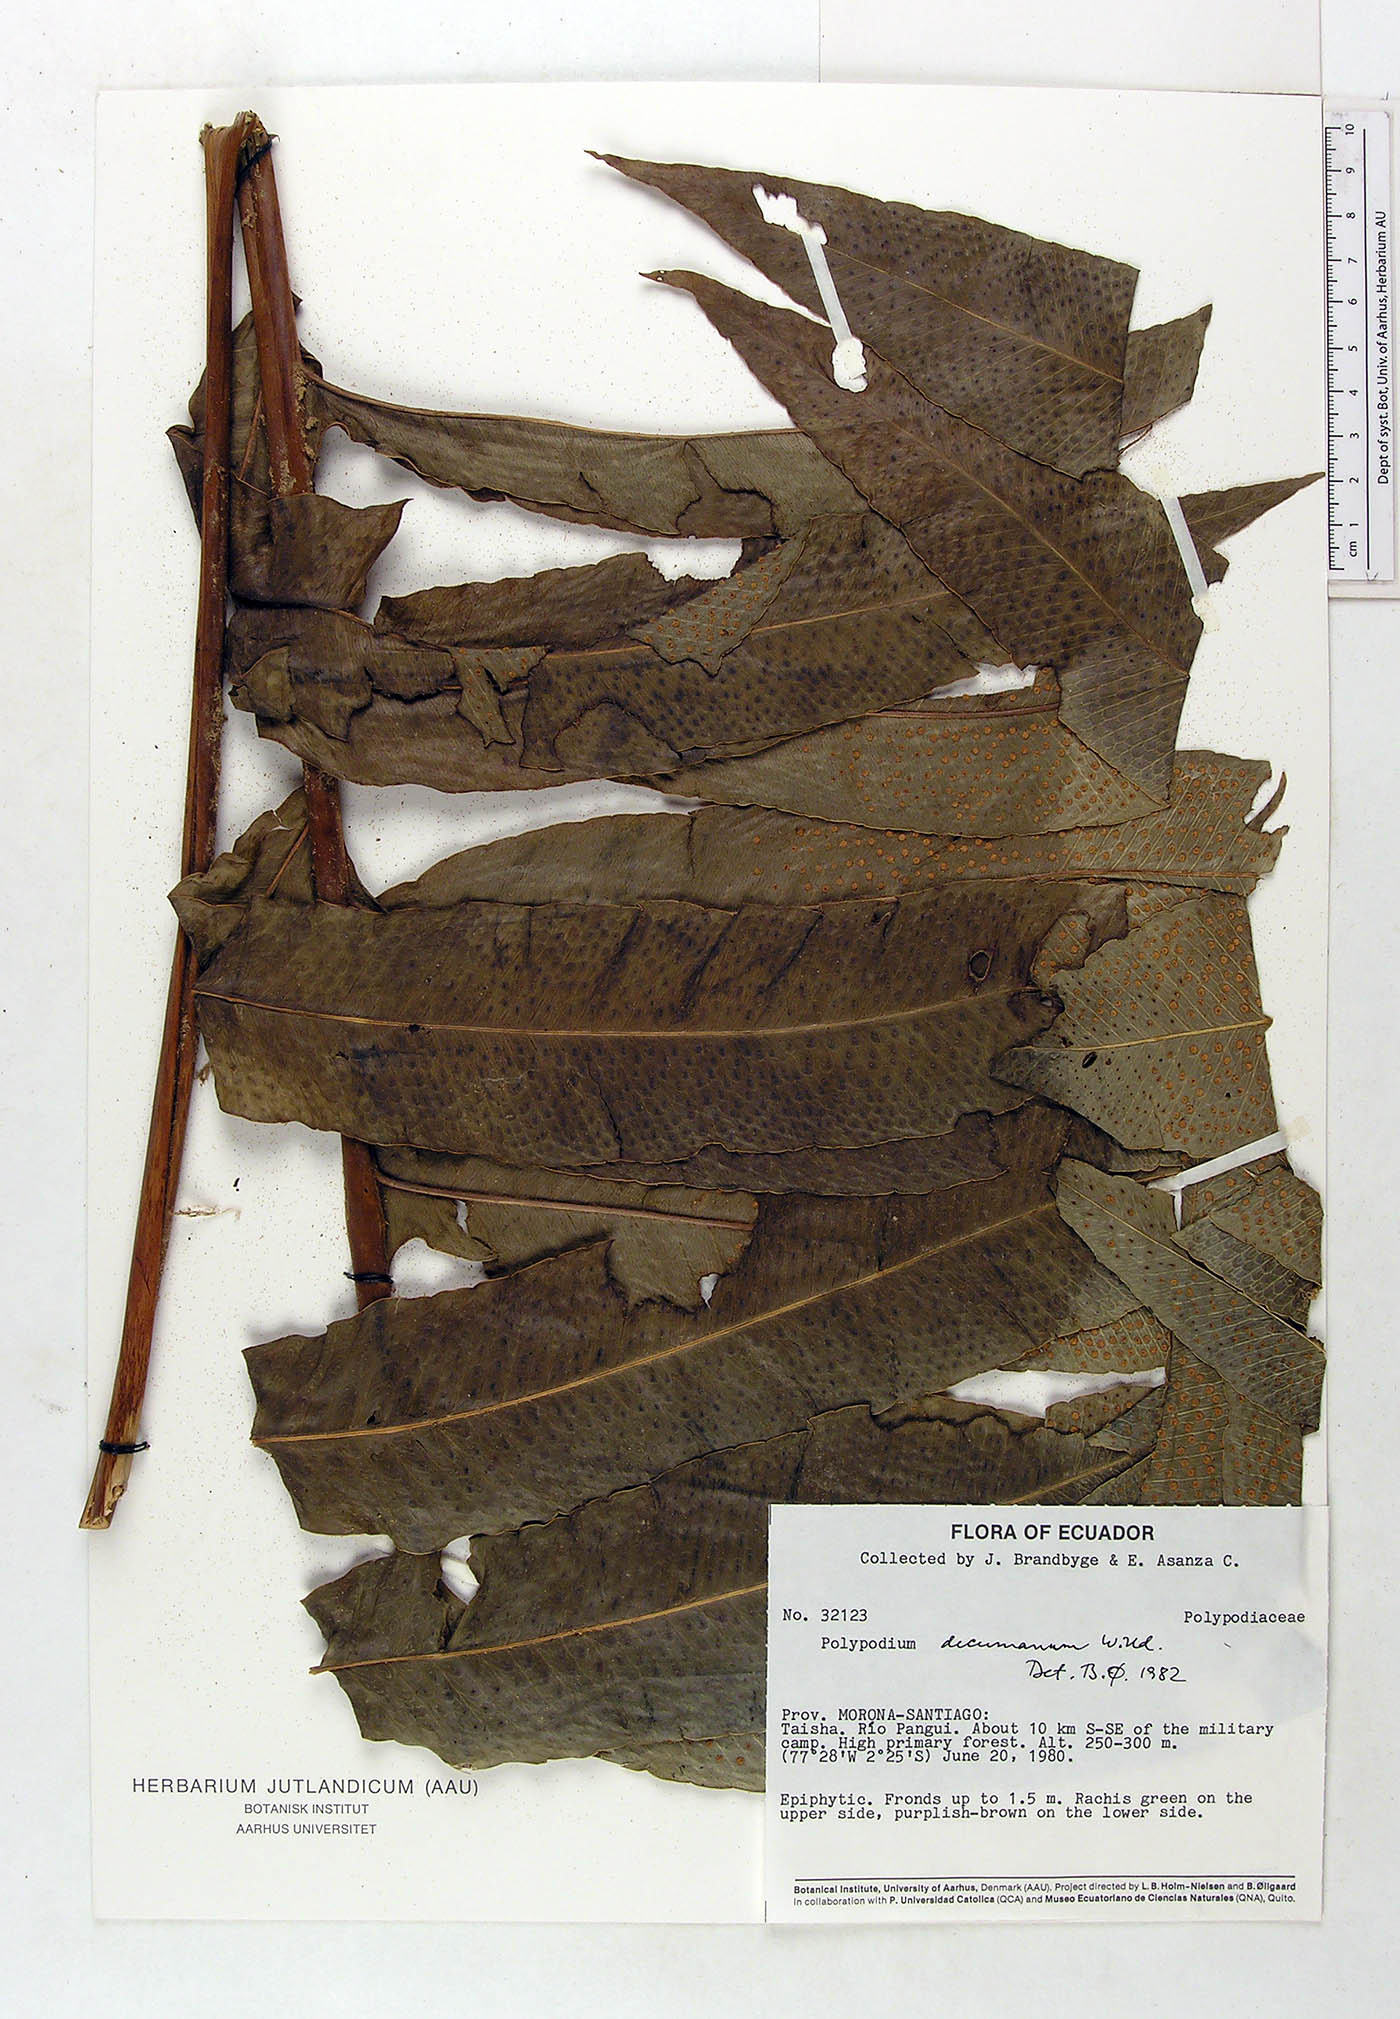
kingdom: Plantae
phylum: Tracheophyta
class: Polypodiopsida
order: Polypodiales
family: Polypodiaceae
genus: Phlebodium
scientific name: Phlebodium decumanum
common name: Golden polypod
